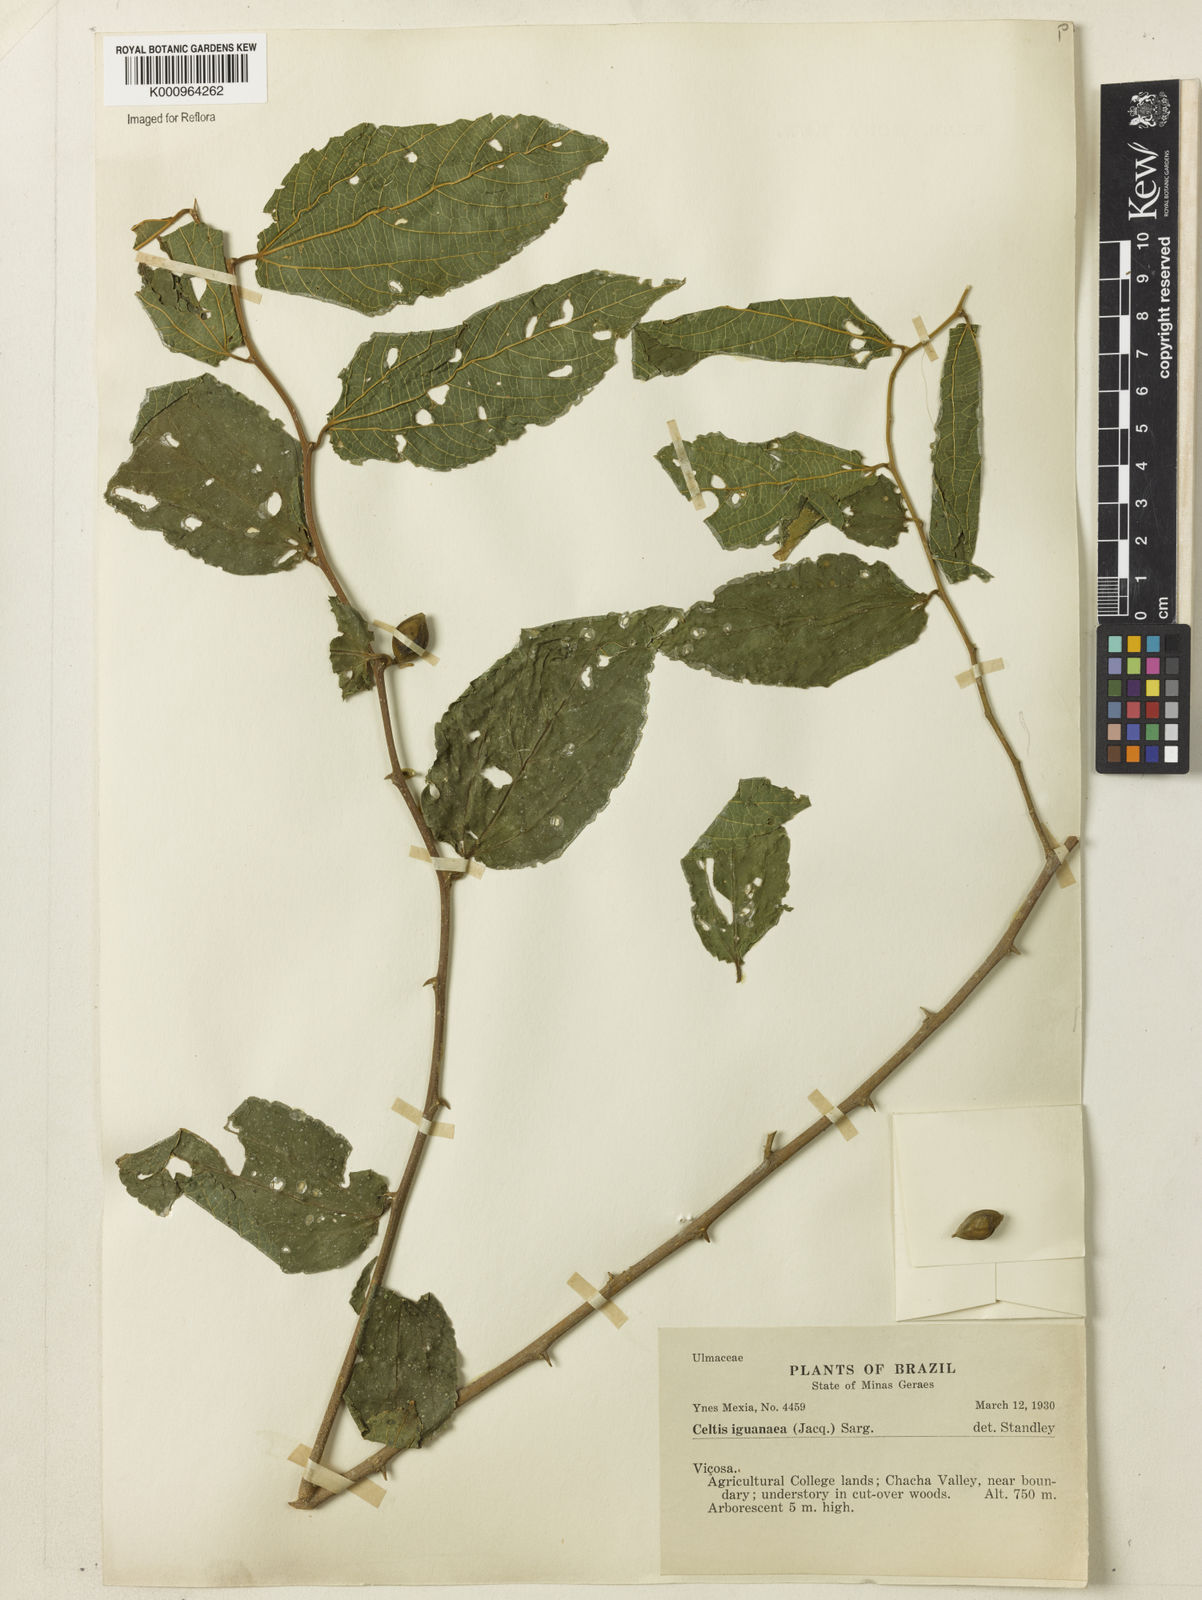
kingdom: Plantae
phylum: Tracheophyta
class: Magnoliopsida
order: Rosales
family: Cannabaceae
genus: Celtis
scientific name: Celtis iguanaea
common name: Iguana hackberry
